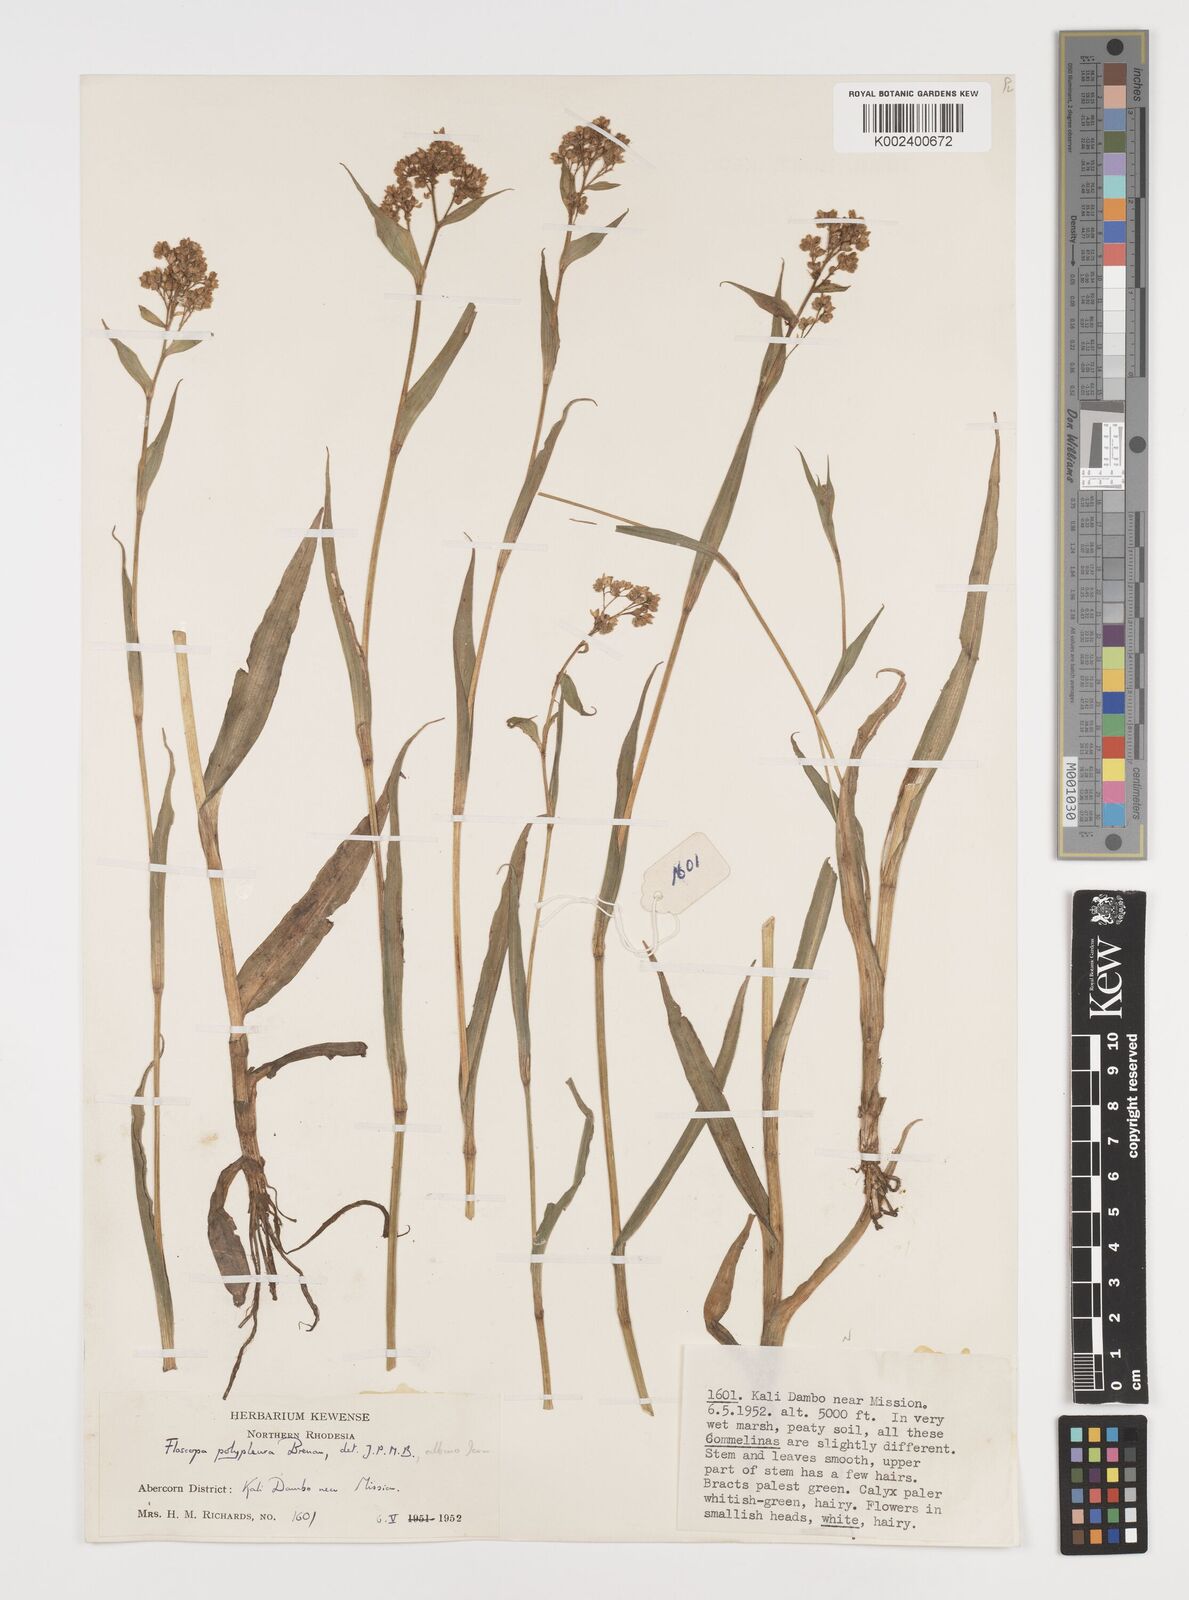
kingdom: Plantae
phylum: Tracheophyta
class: Liliopsida
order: Commelinales
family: Commelinaceae
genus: Floscopa
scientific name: Floscopa polypleura
